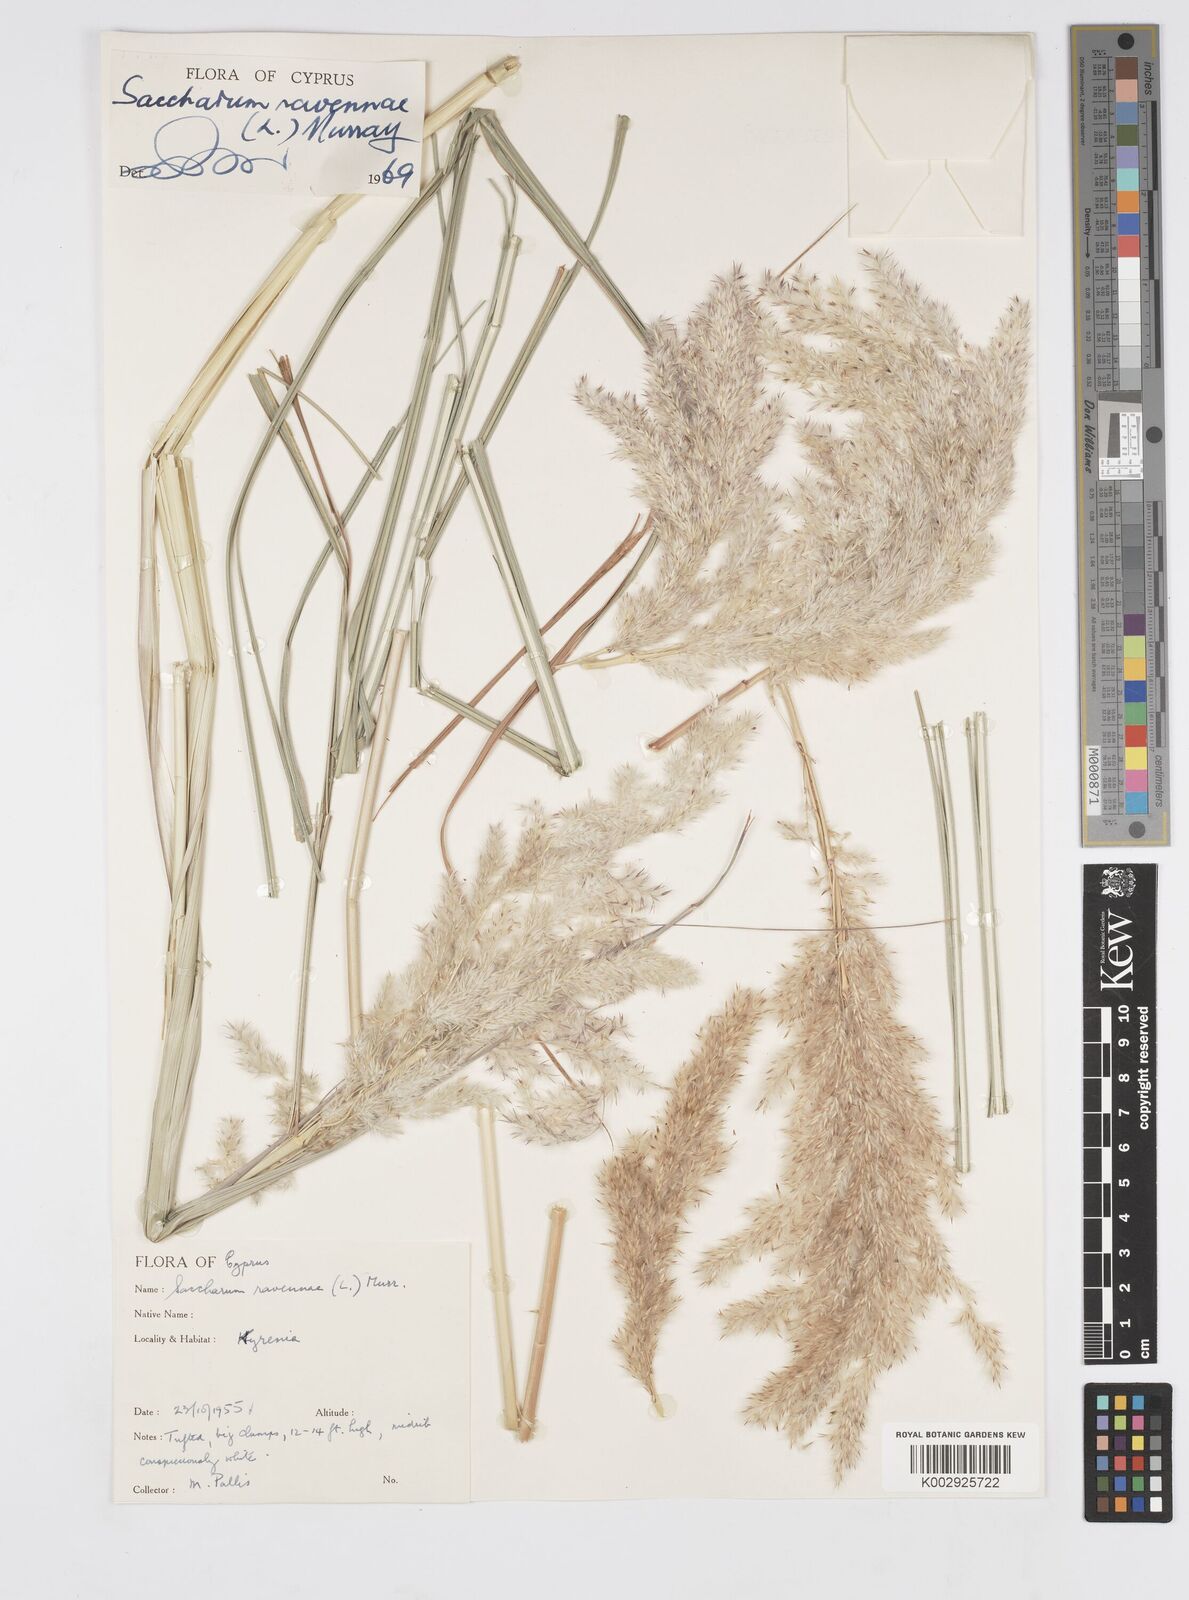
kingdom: Plantae
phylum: Tracheophyta
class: Liliopsida
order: Poales
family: Poaceae
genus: Tripidium
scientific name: Tripidium ravennae
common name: Ravenna grass
